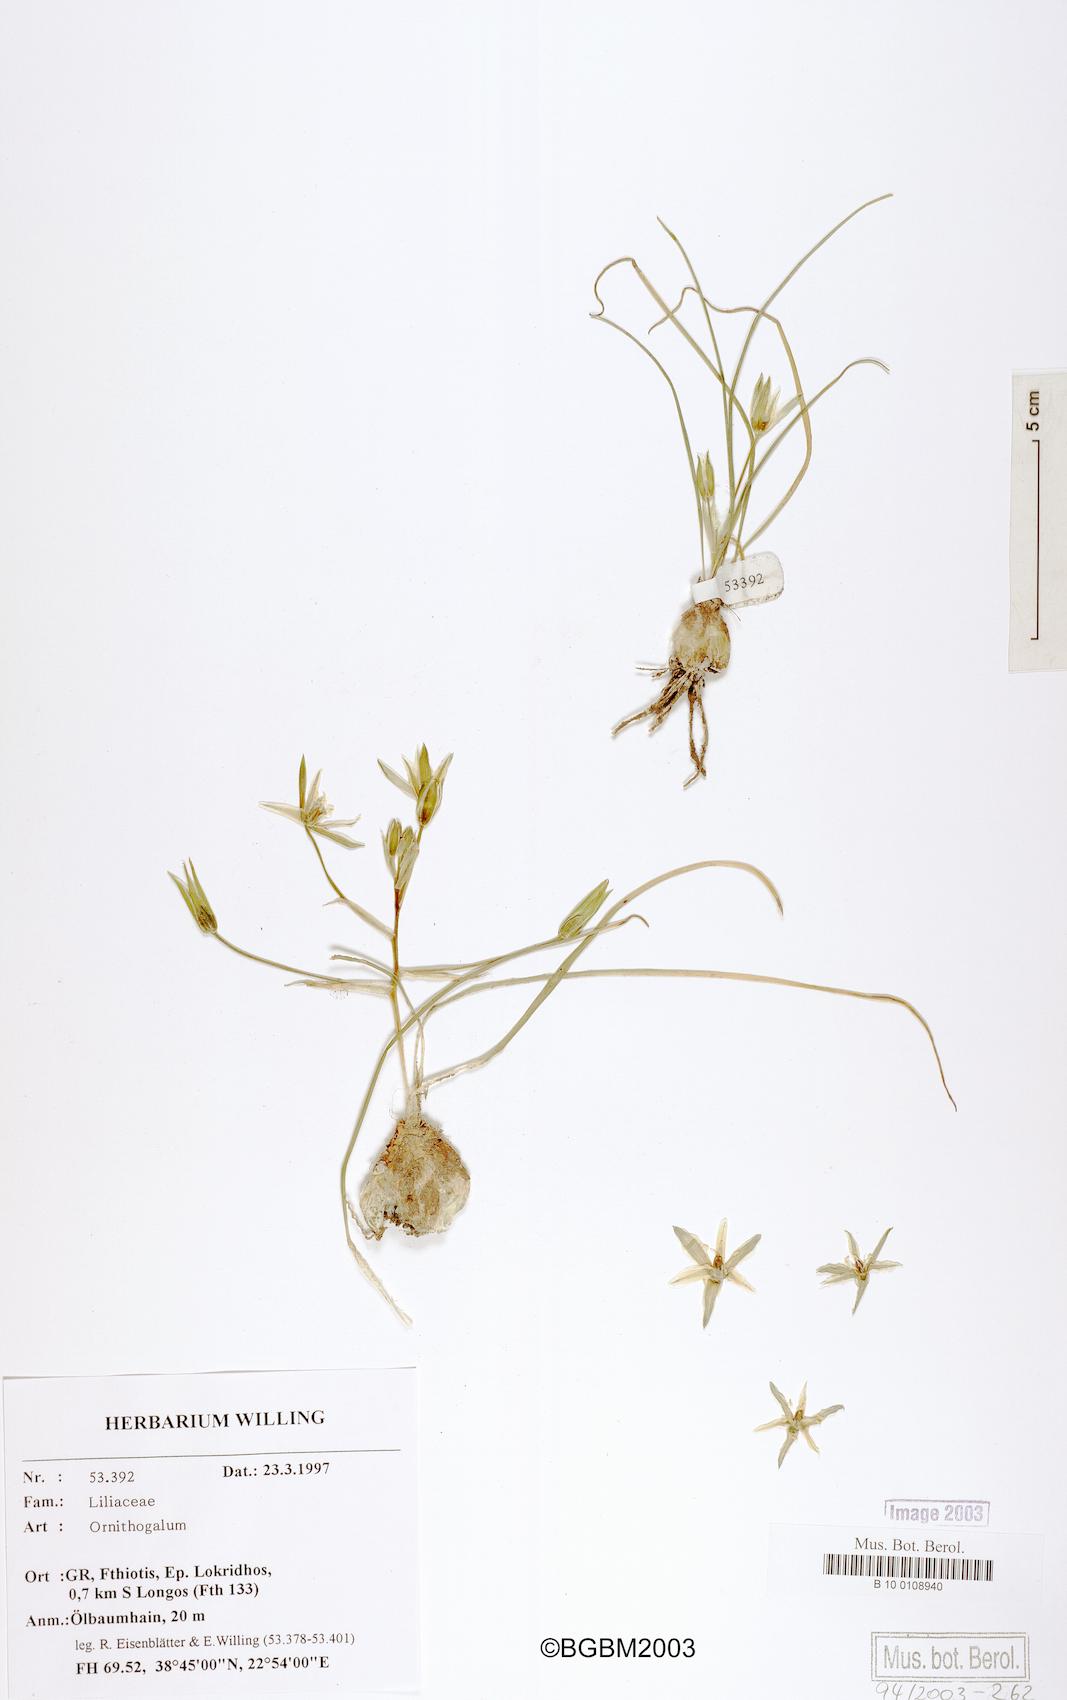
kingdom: Plantae
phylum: Tracheophyta
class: Liliopsida
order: Asparagales
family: Asparagaceae
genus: Ornithogalum
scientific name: Ornithogalum
